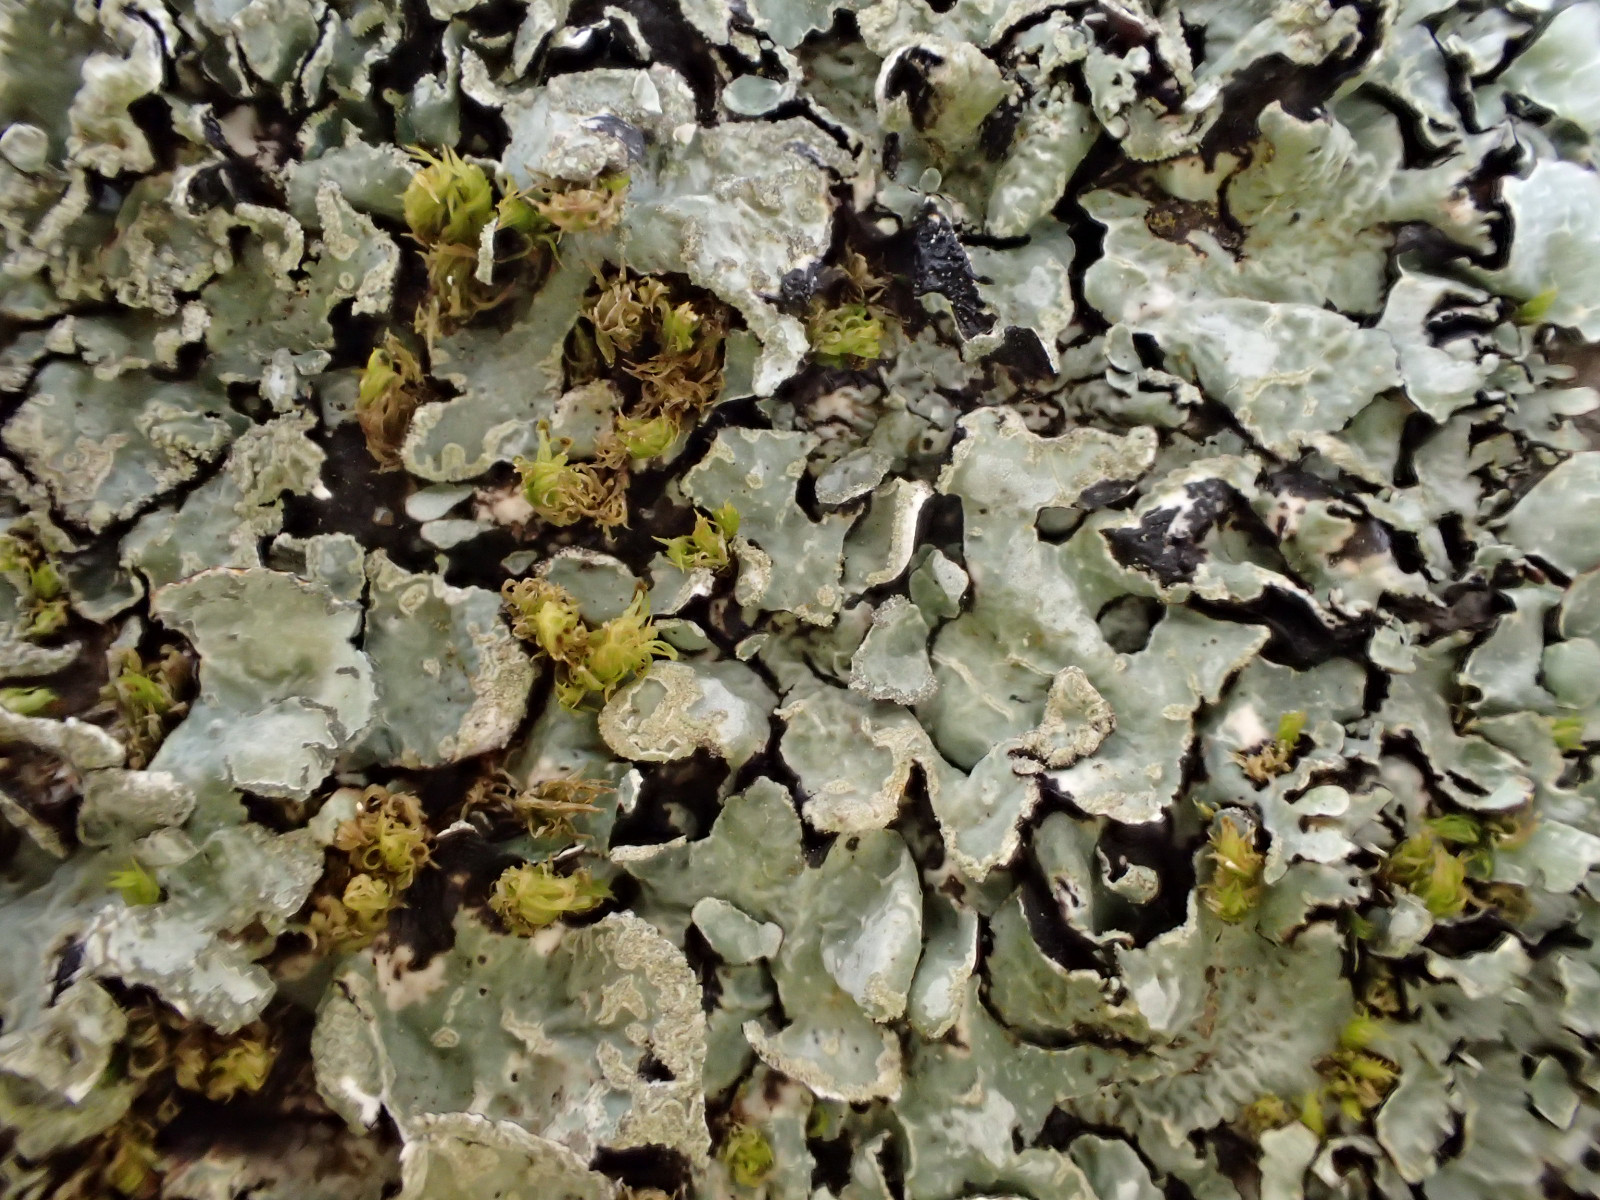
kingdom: Fungi
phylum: Ascomycota
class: Lecanoromycetes
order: Lecanorales
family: Parmeliaceae
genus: Parmelia
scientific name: Parmelia sulcata
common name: rynket skållav
